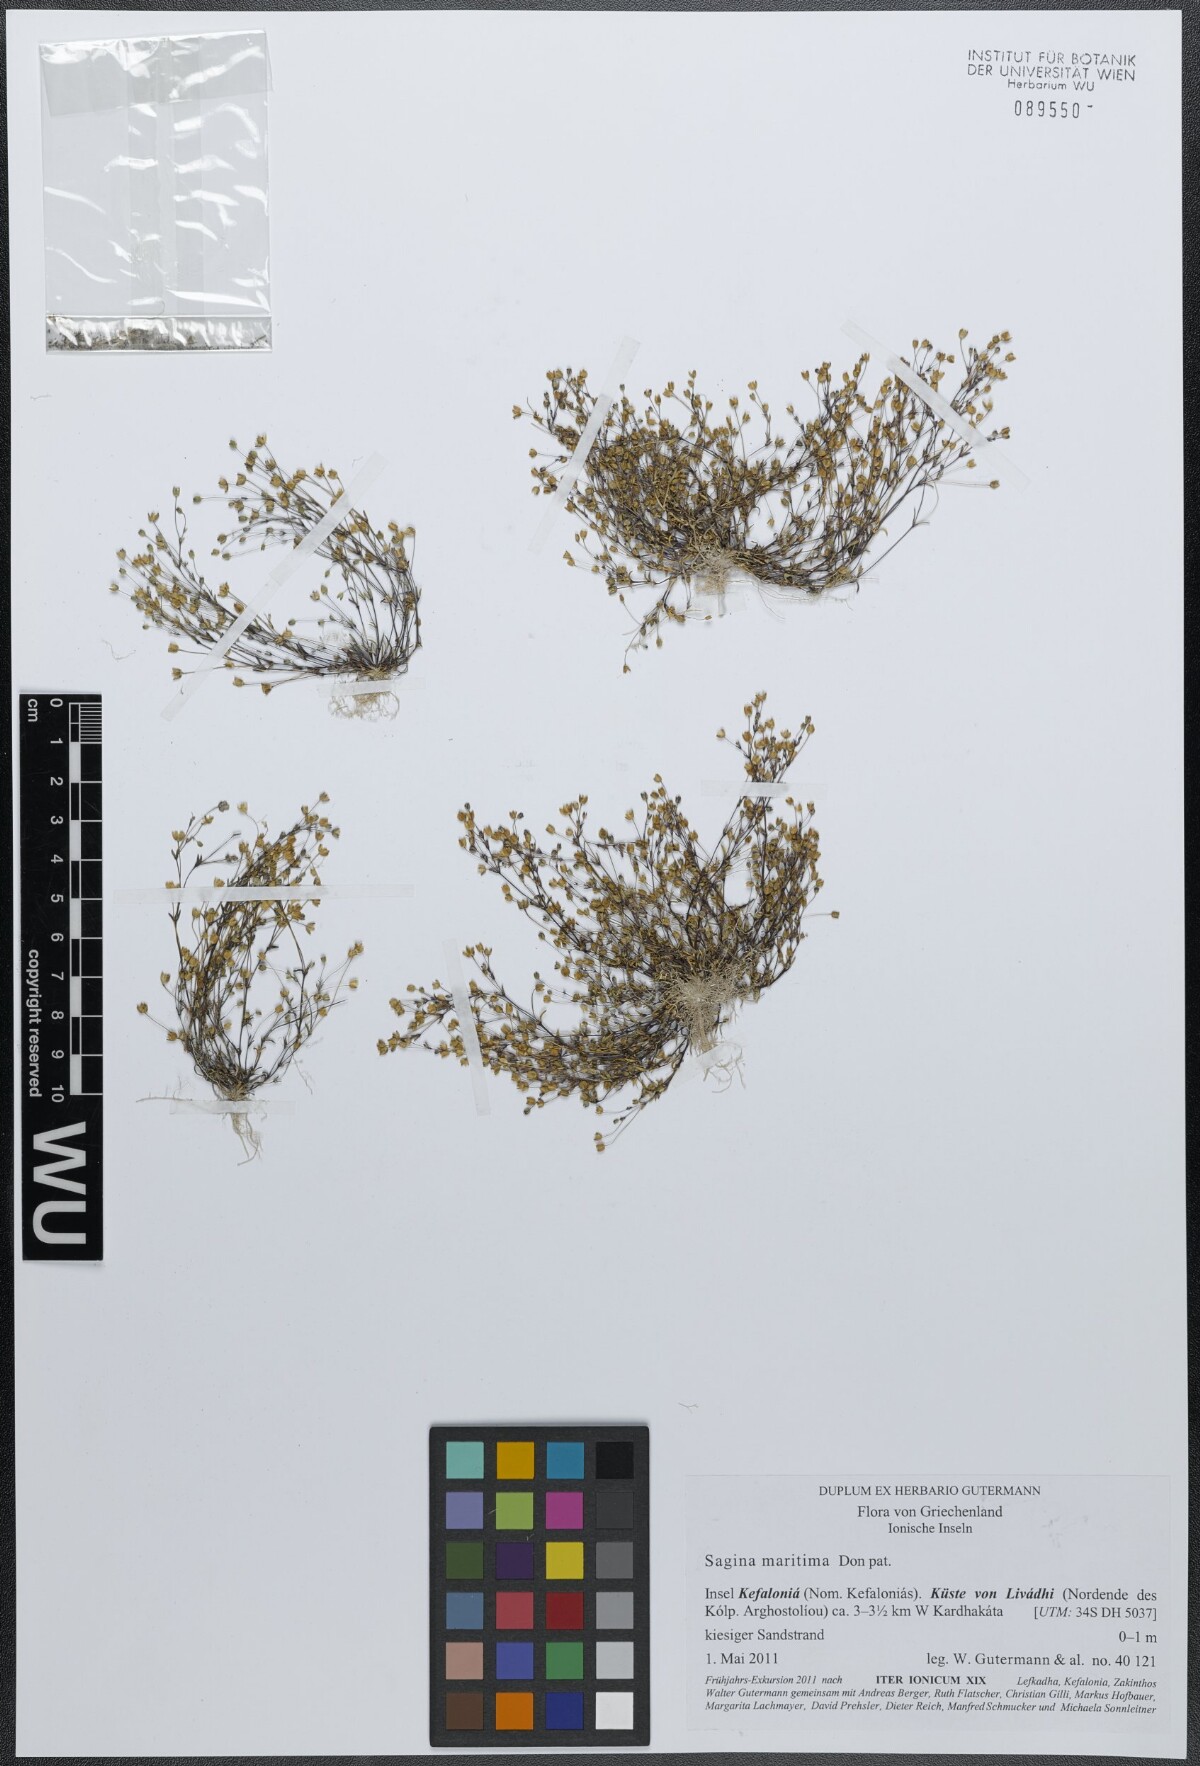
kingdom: Plantae
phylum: Tracheophyta
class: Magnoliopsida
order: Caryophyllales
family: Caryophyllaceae
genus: Sagina
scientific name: Sagina maritima
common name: Sea pearlwort
